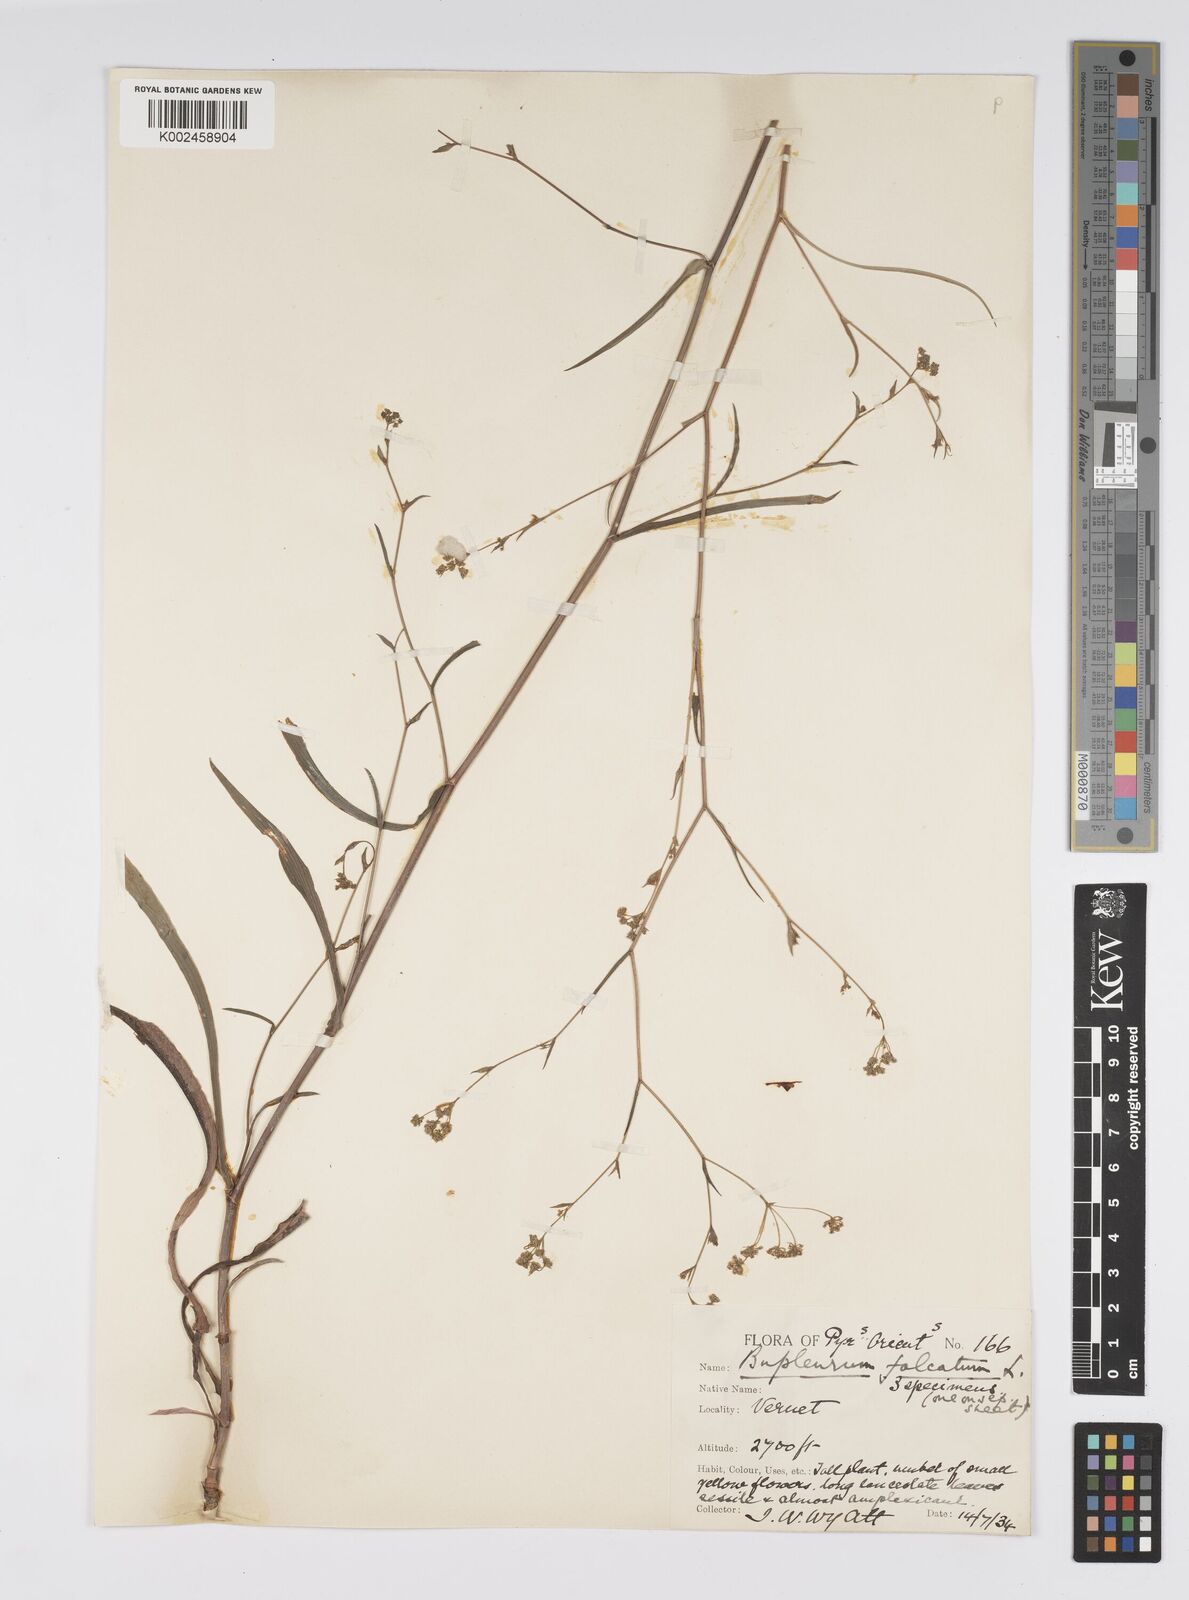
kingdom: Plantae
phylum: Tracheophyta
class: Magnoliopsida
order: Apiales
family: Apiaceae
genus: Bupleurum
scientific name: Bupleurum falcatum
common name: Sickle-leaved hare's-ear
